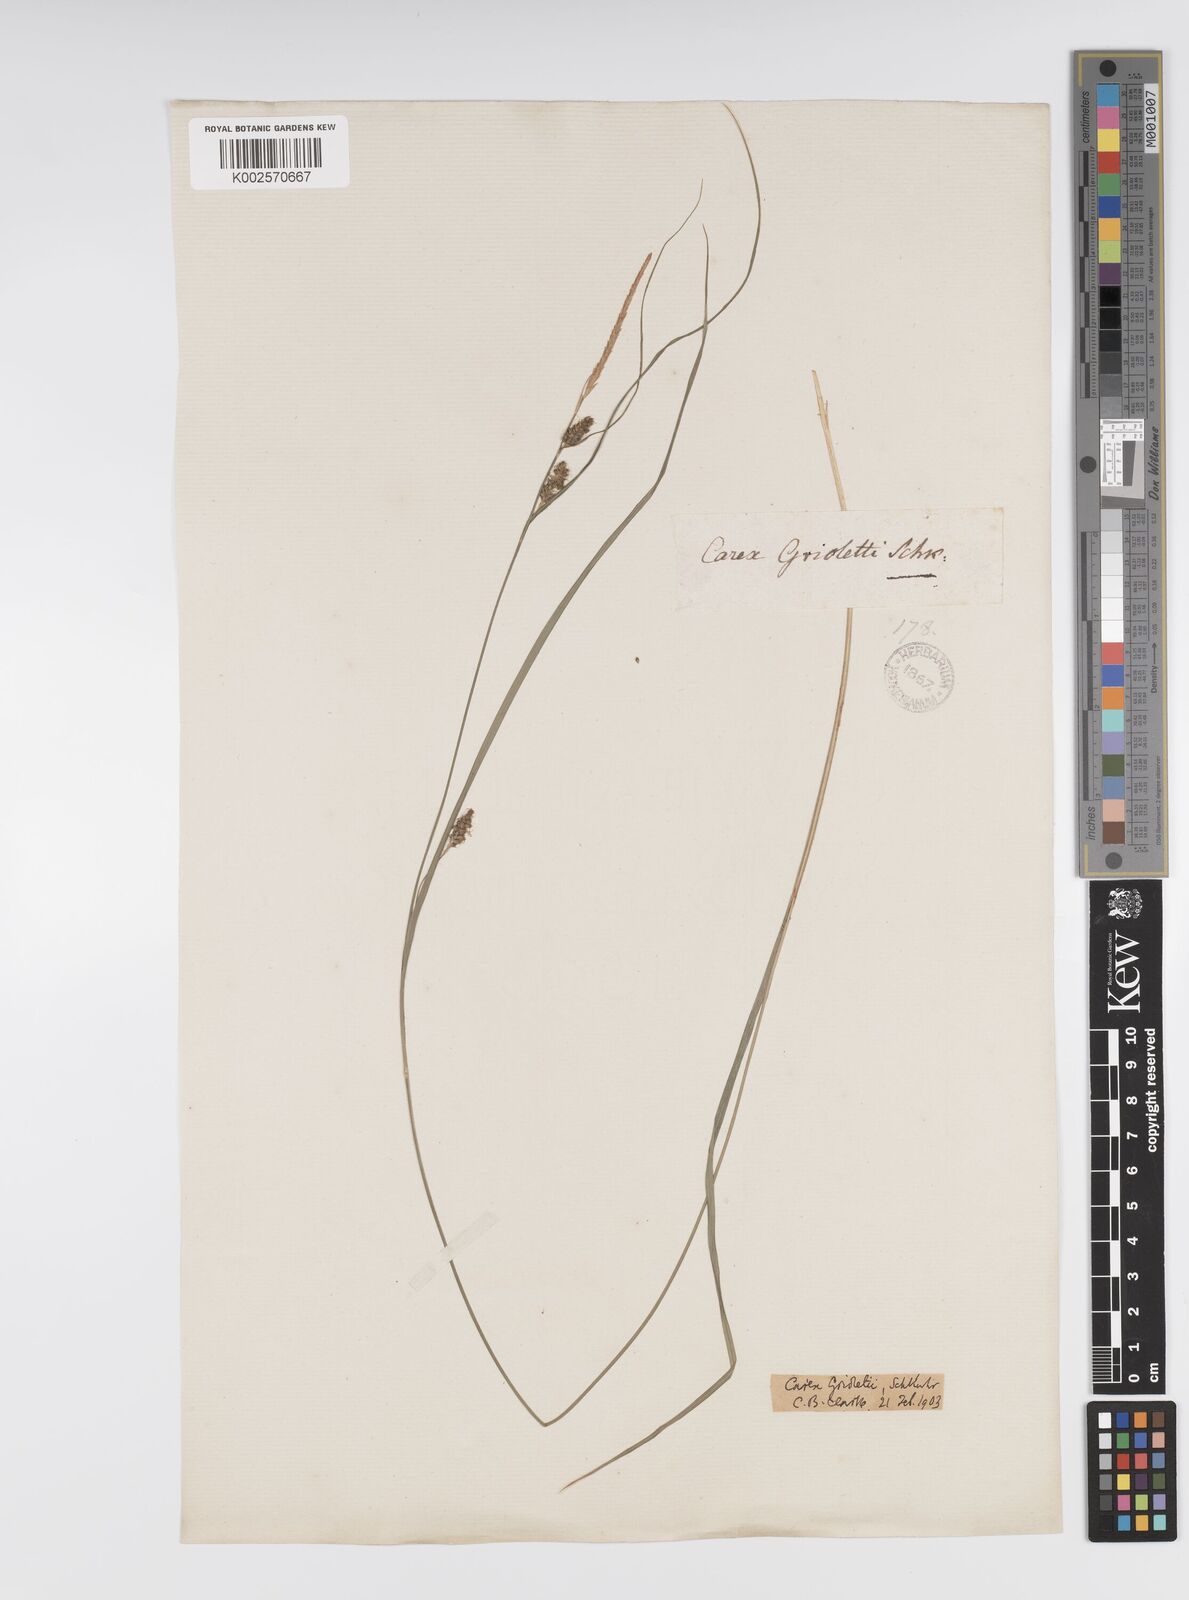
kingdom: Plantae
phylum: Tracheophyta
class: Liliopsida
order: Poales
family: Cyperaceae
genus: Carex
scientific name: Carex grioletii
